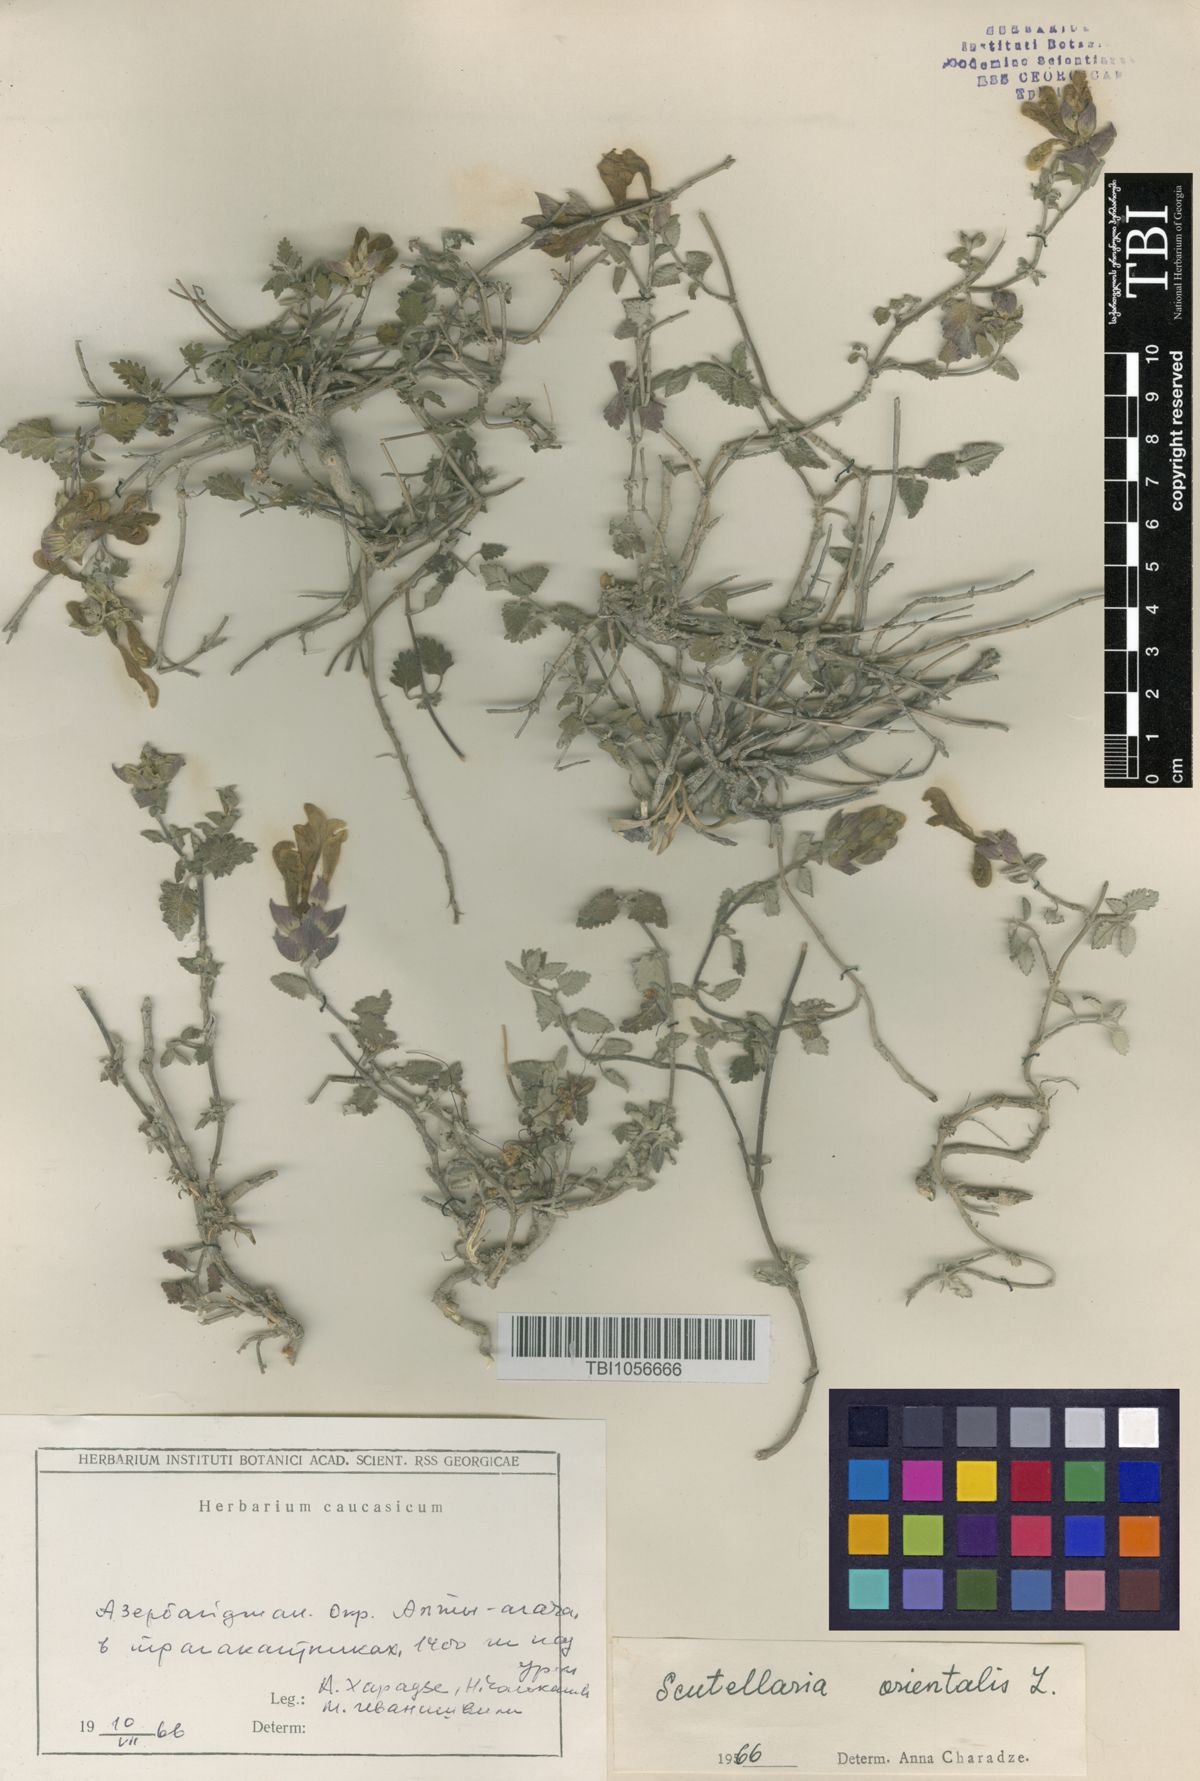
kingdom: Plantae
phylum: Tracheophyta
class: Magnoliopsida
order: Lamiales
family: Lamiaceae
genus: Scutellaria
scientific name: Scutellaria orientalis
